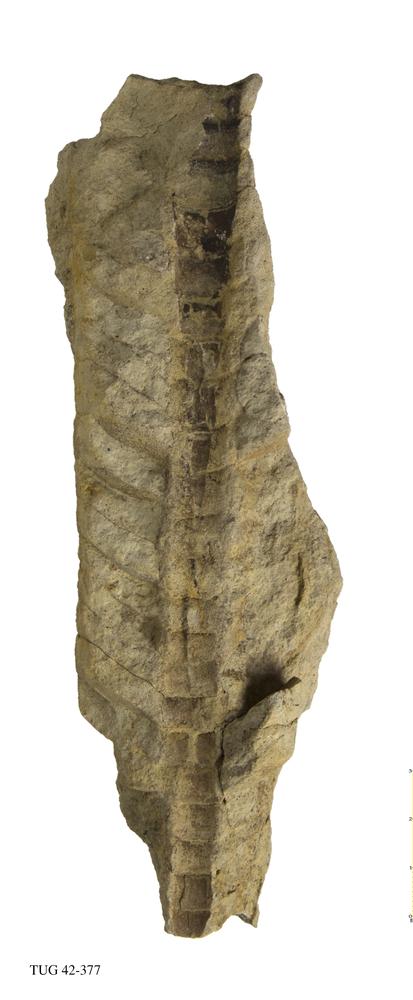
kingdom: Animalia
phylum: Mollusca
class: Cephalopoda
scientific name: Cephalopoda
